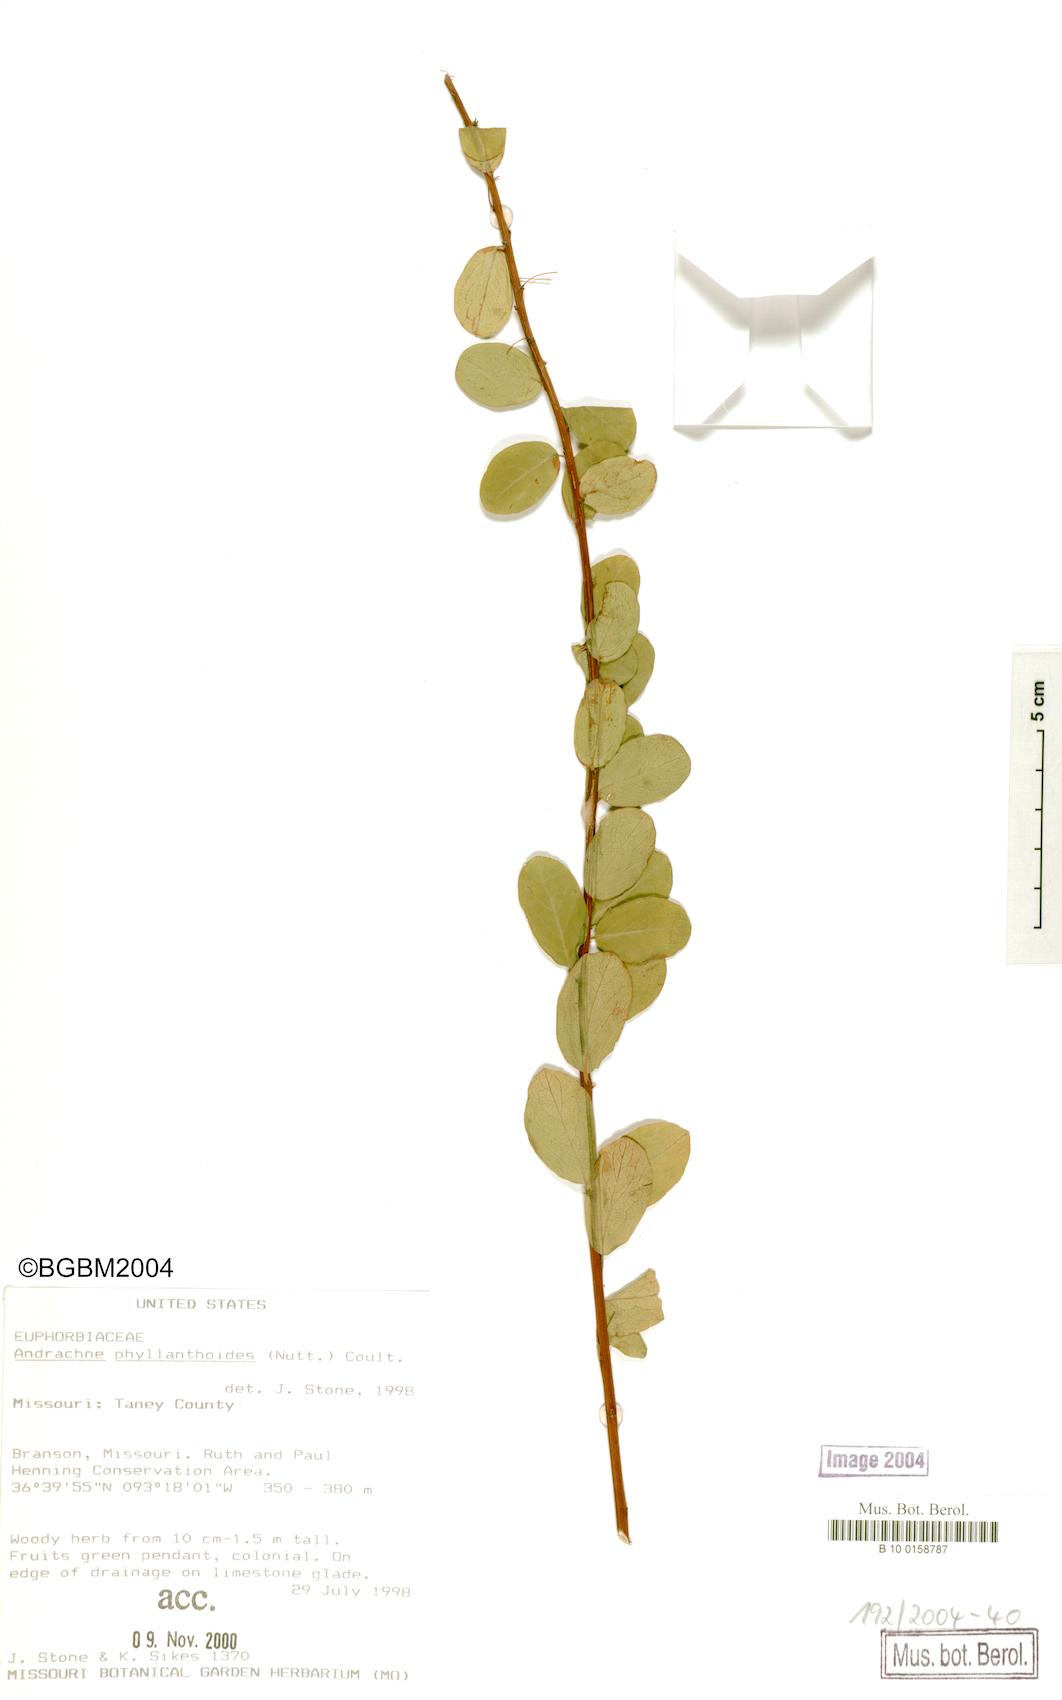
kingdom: Plantae
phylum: Tracheophyta
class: Magnoliopsida
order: Malpighiales
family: Phyllanthaceae
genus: Phyllanthopsis
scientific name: Phyllanthopsis phyllanthoides
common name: Missouri maidenbush
